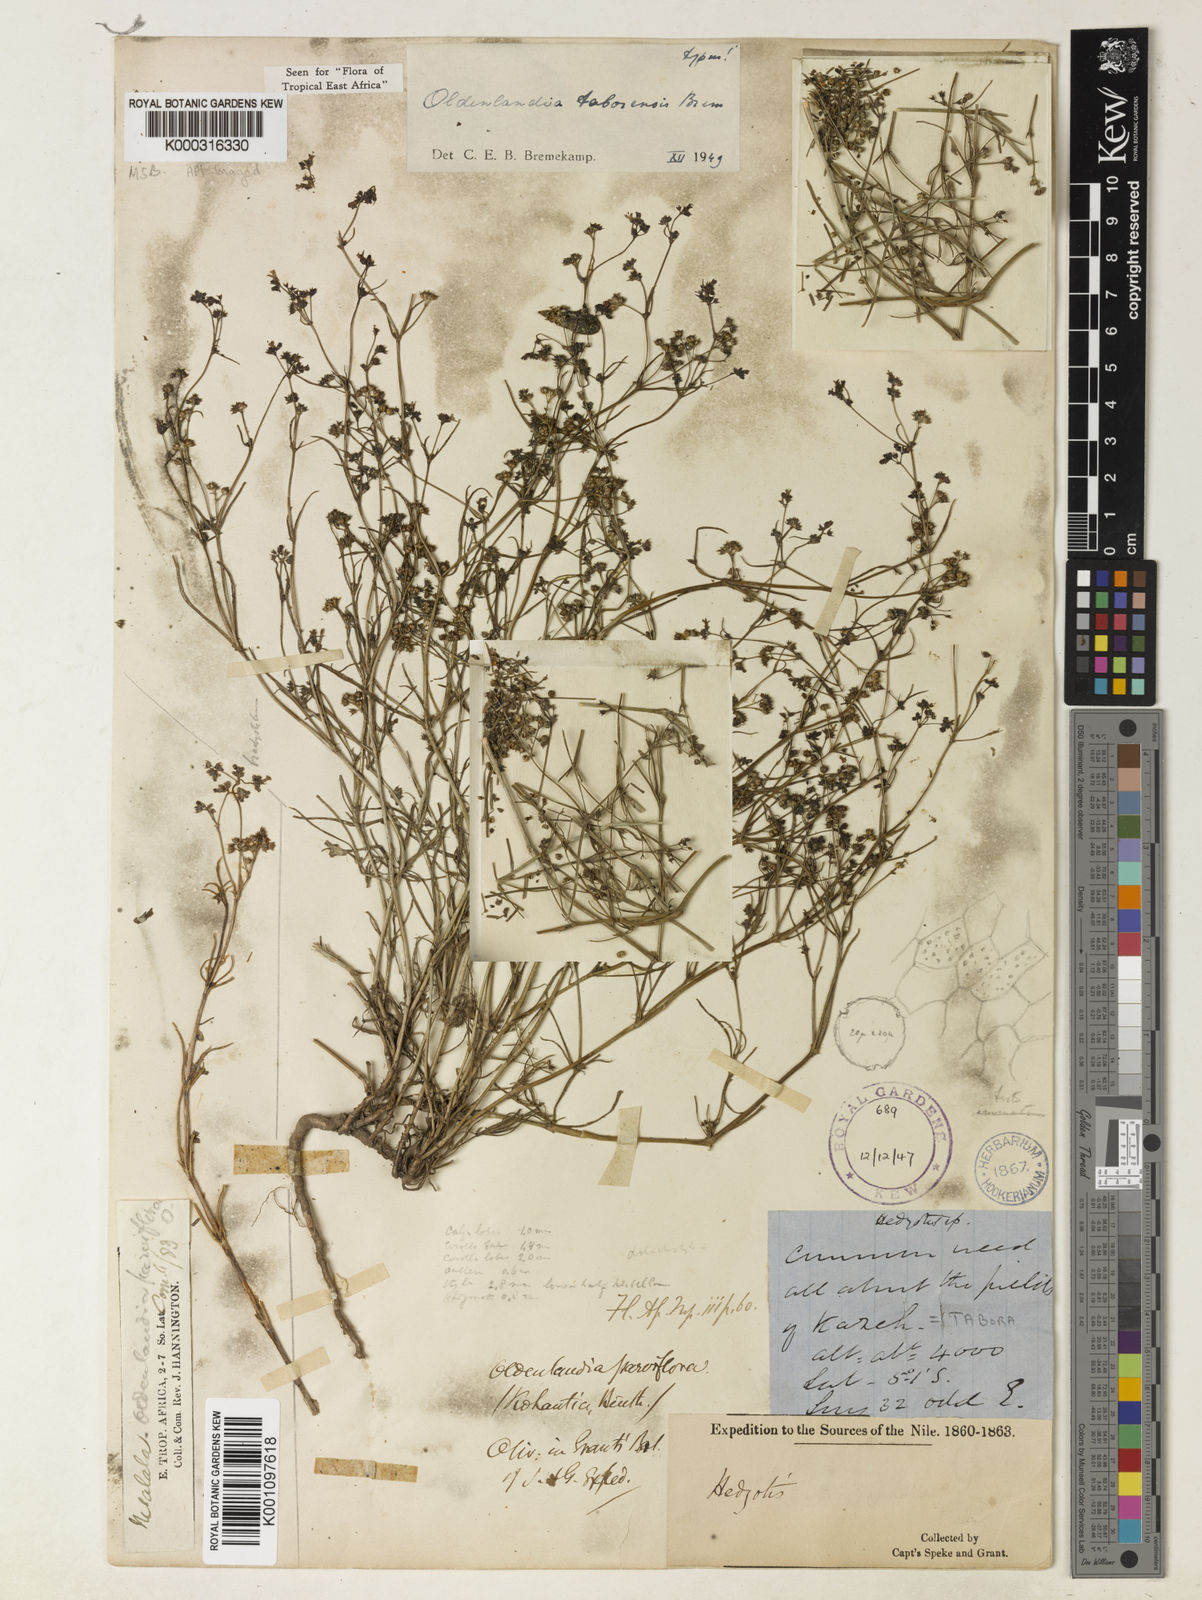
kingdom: Plantae
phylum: Tracheophyta
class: Magnoliopsida
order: Gentianales
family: Rubiaceae
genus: Oldenlandia
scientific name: Oldenlandia taborensis
